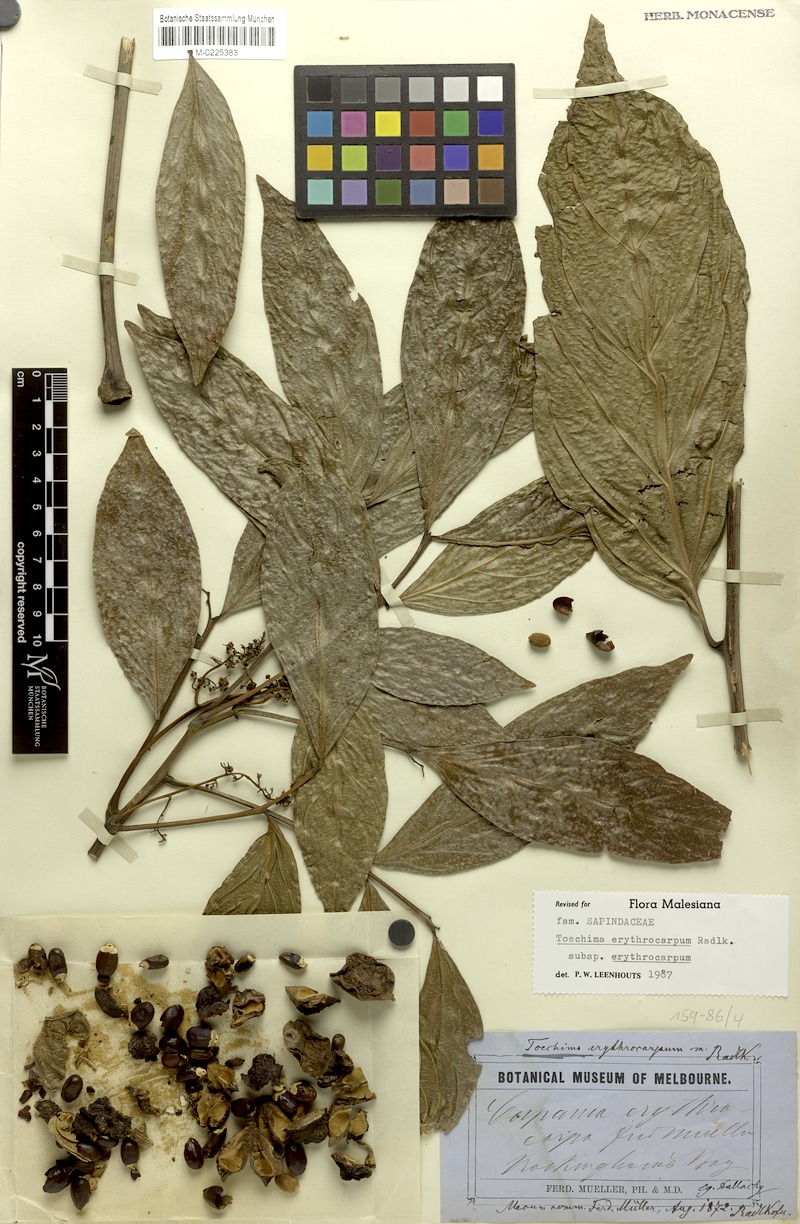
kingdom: Plantae
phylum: Tracheophyta
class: Magnoliopsida
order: Sapindales
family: Sapindaceae
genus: Toechima
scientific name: Toechima erythrocarpum
